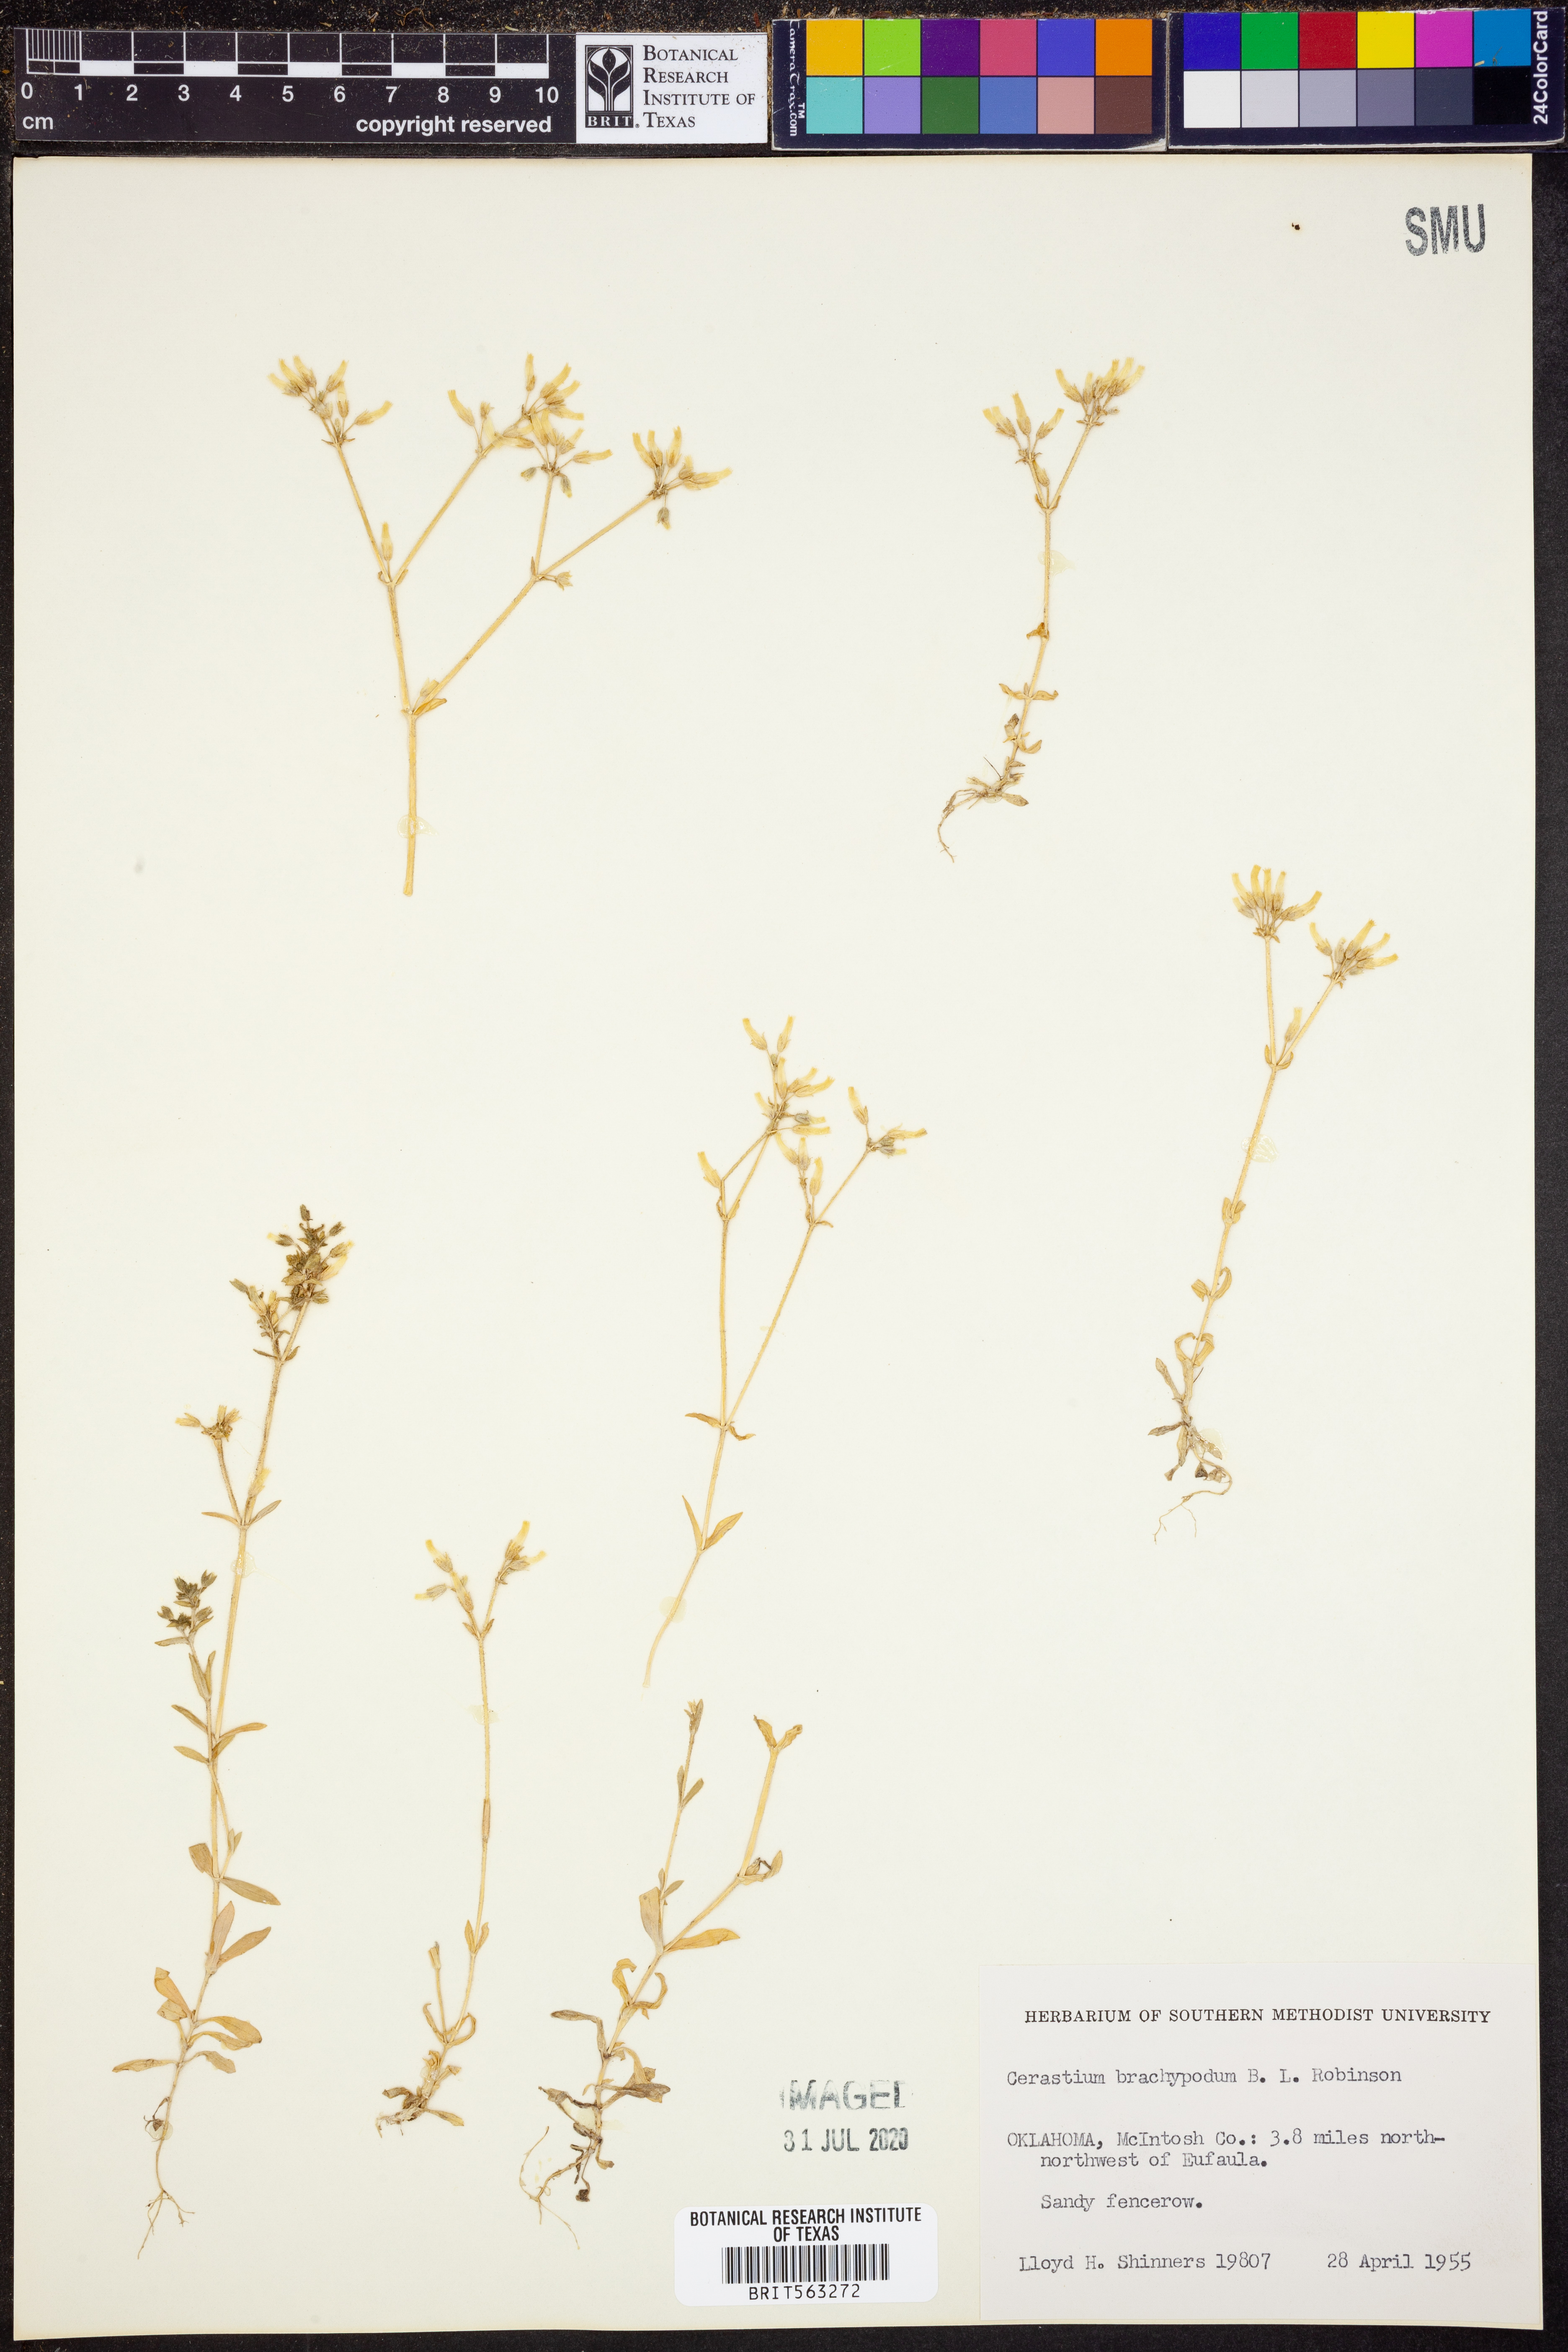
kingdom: Plantae
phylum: Tracheophyta
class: Magnoliopsida
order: Caryophyllales
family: Caryophyllaceae
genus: Cerastium
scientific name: Cerastium brachypodum
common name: Short-pedicelled nodding chickweed
